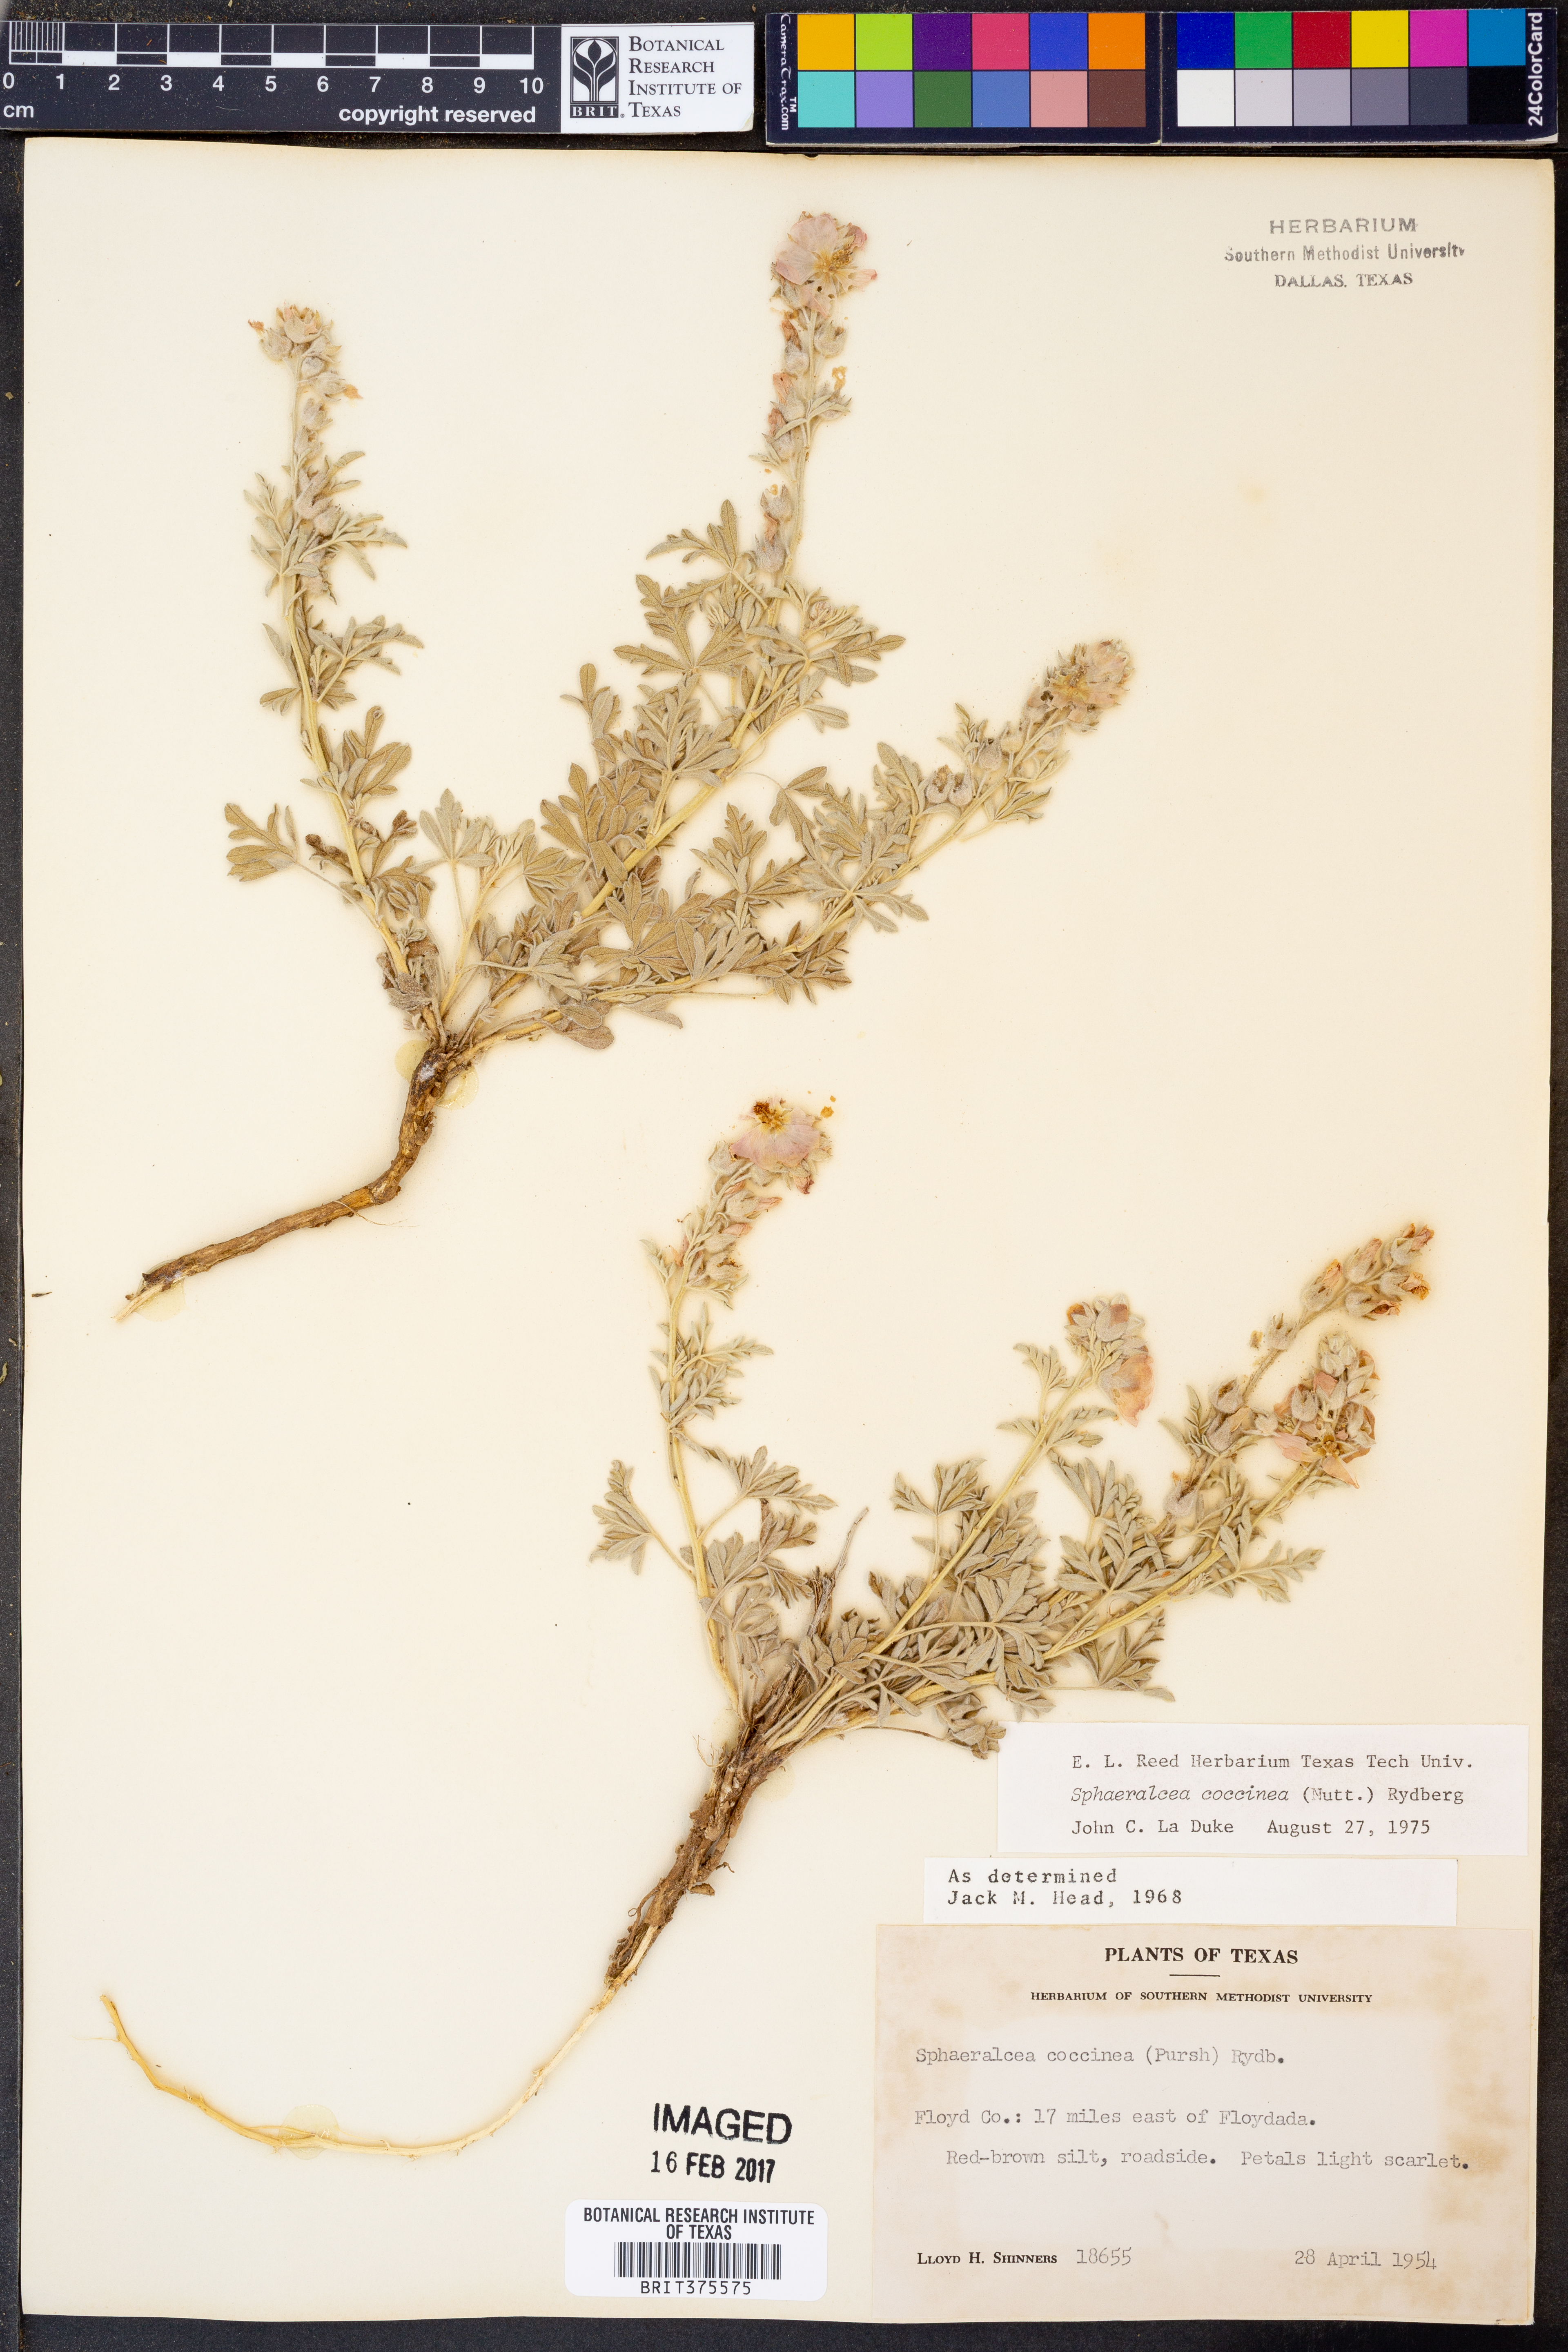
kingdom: Plantae
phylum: Tracheophyta
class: Magnoliopsida
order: Malvales
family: Malvaceae
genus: Sphaeralcea
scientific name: Sphaeralcea coccinea
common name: Moss-rose
